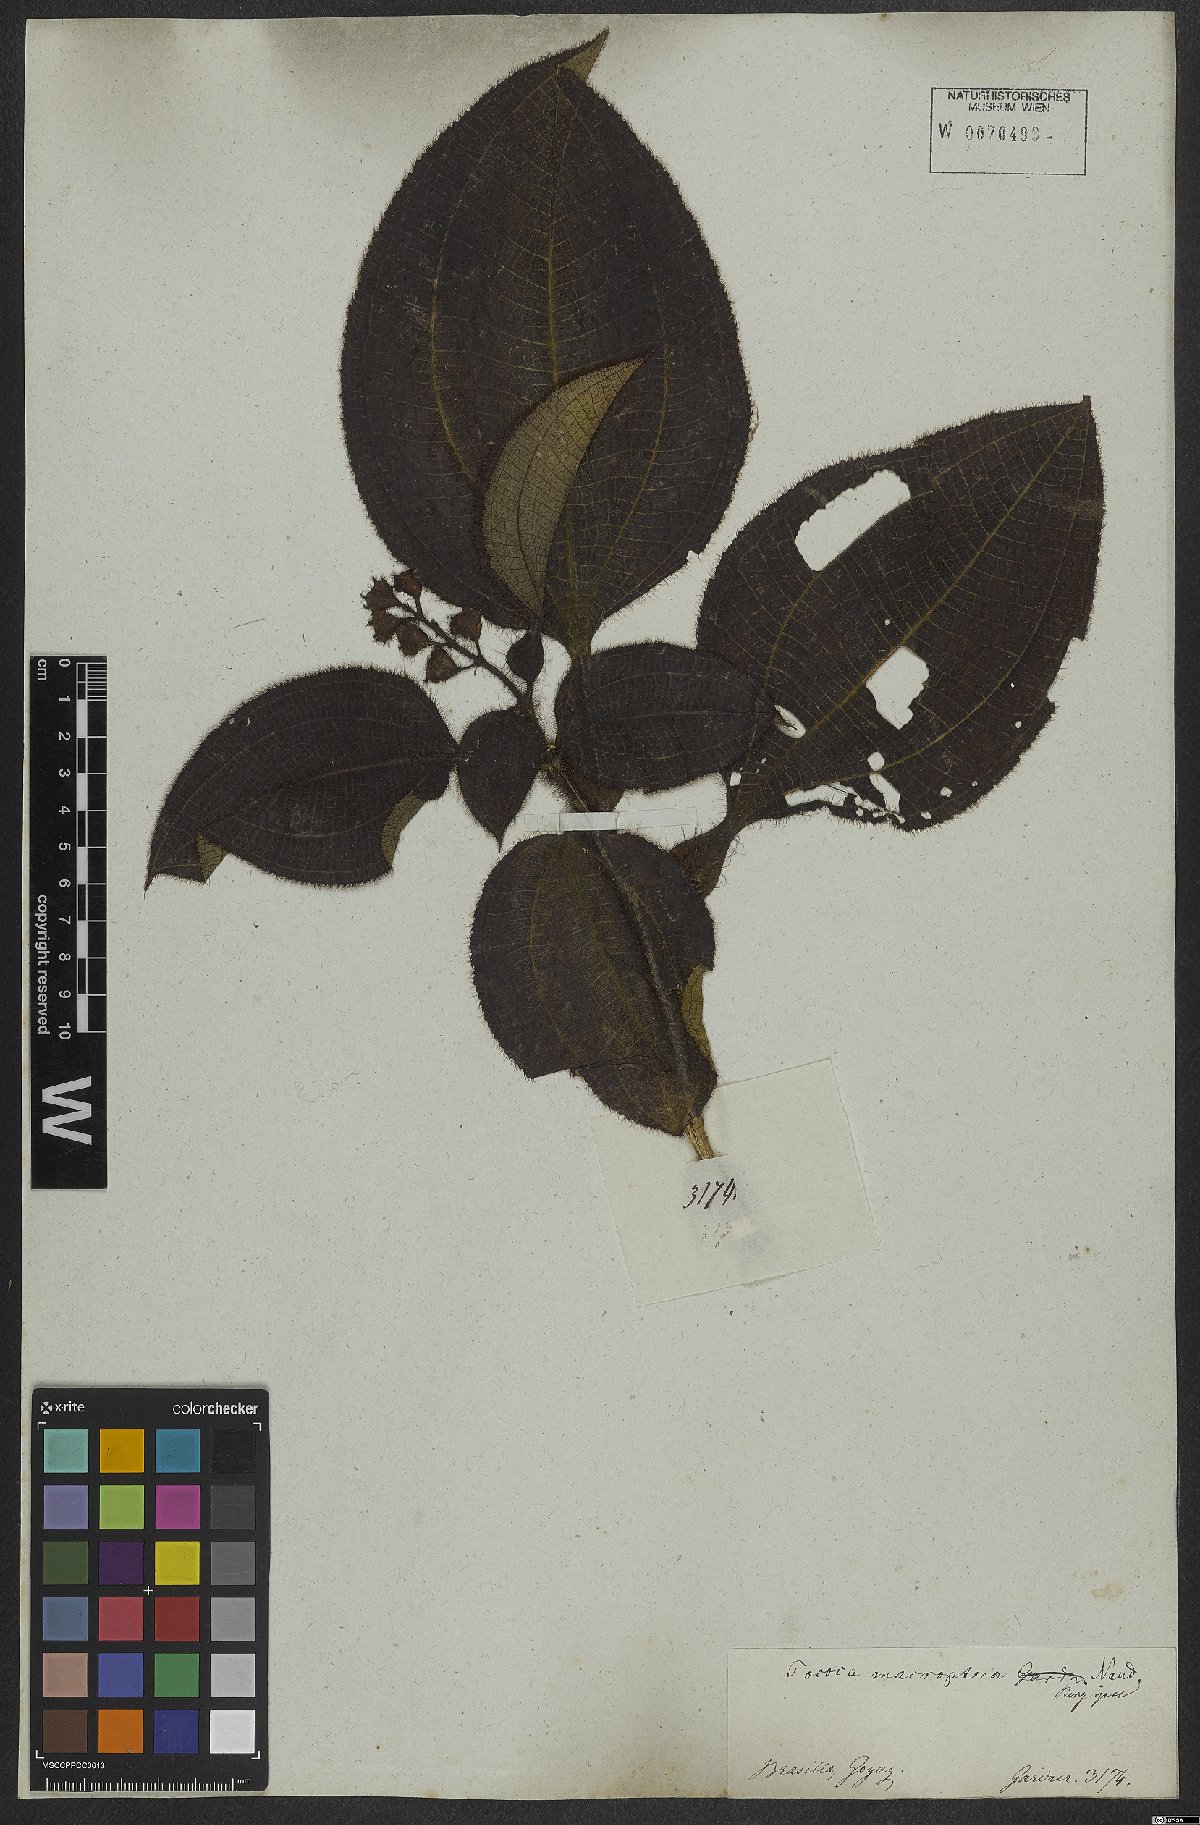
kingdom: Plantae
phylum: Tracheophyta
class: Magnoliopsida
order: Myrtales
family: Melastomataceae
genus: Miconia
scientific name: Miconia macroptera
